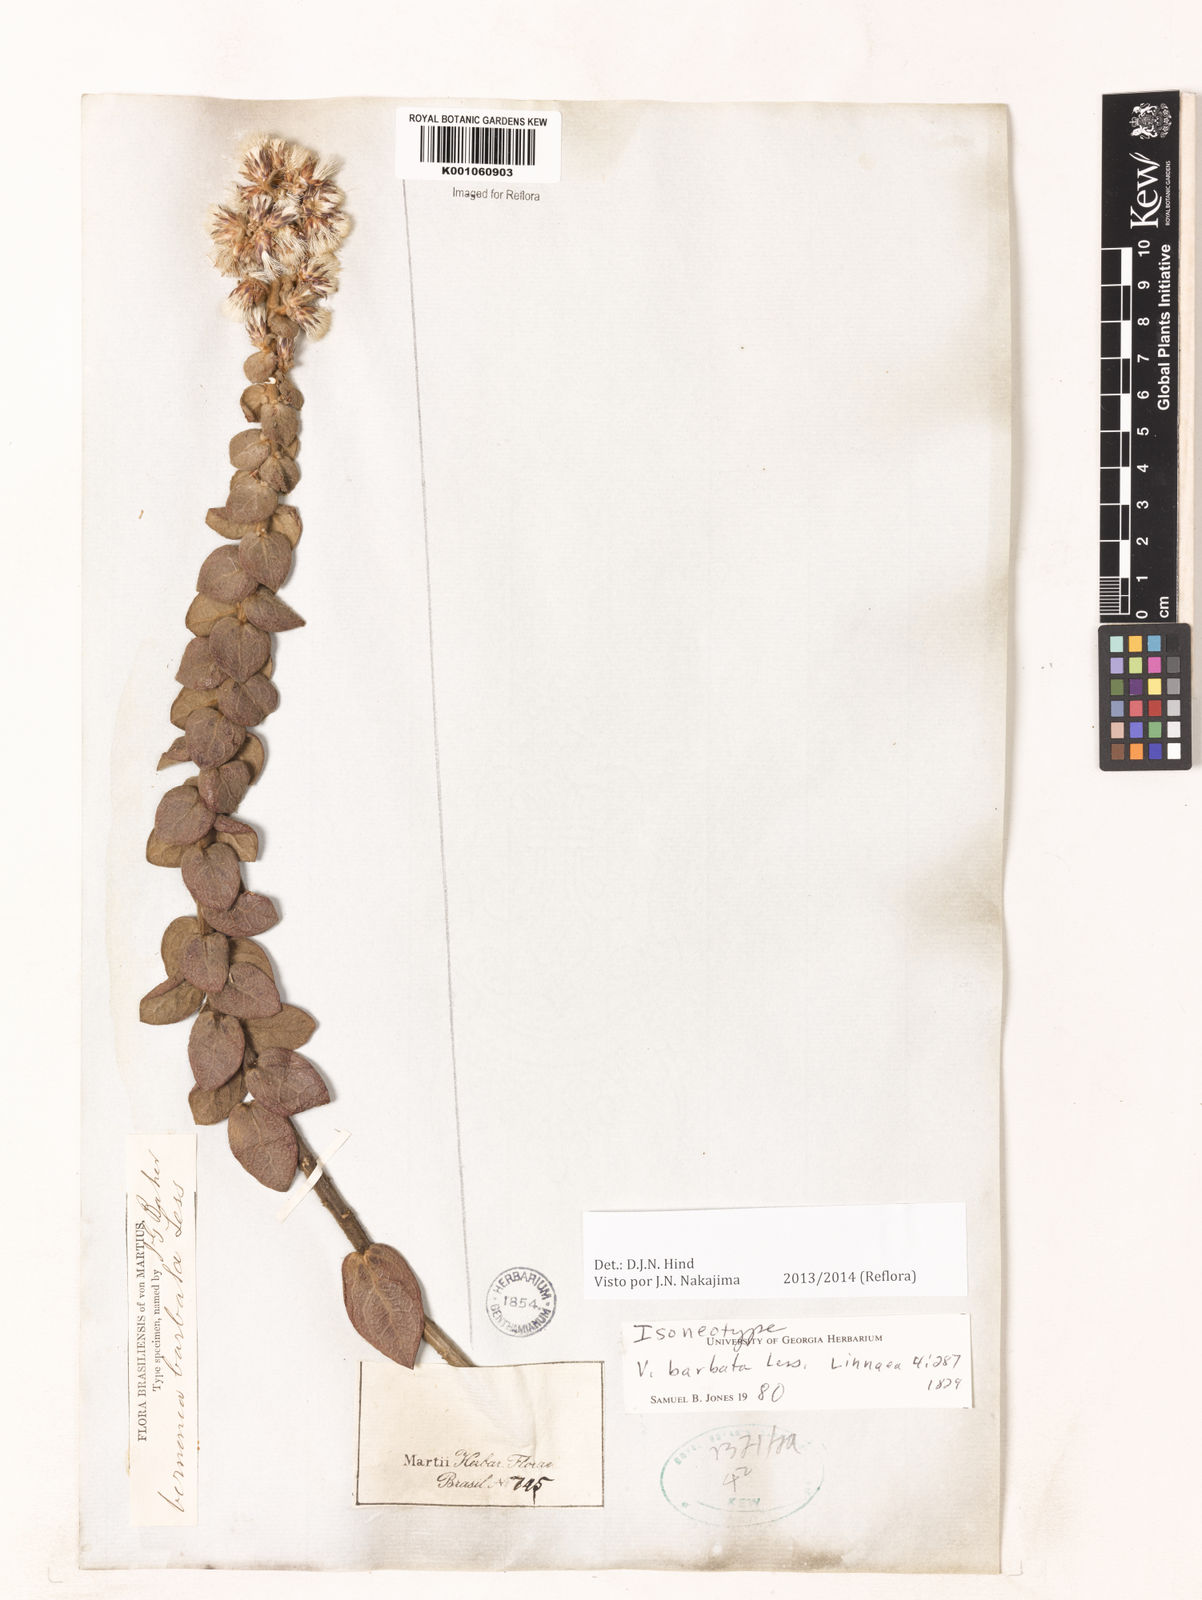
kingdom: Plantae
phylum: Tracheophyta
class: Magnoliopsida
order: Asterales
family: Asteraceae
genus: Lepidaploa
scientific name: Lepidaploa barbata
